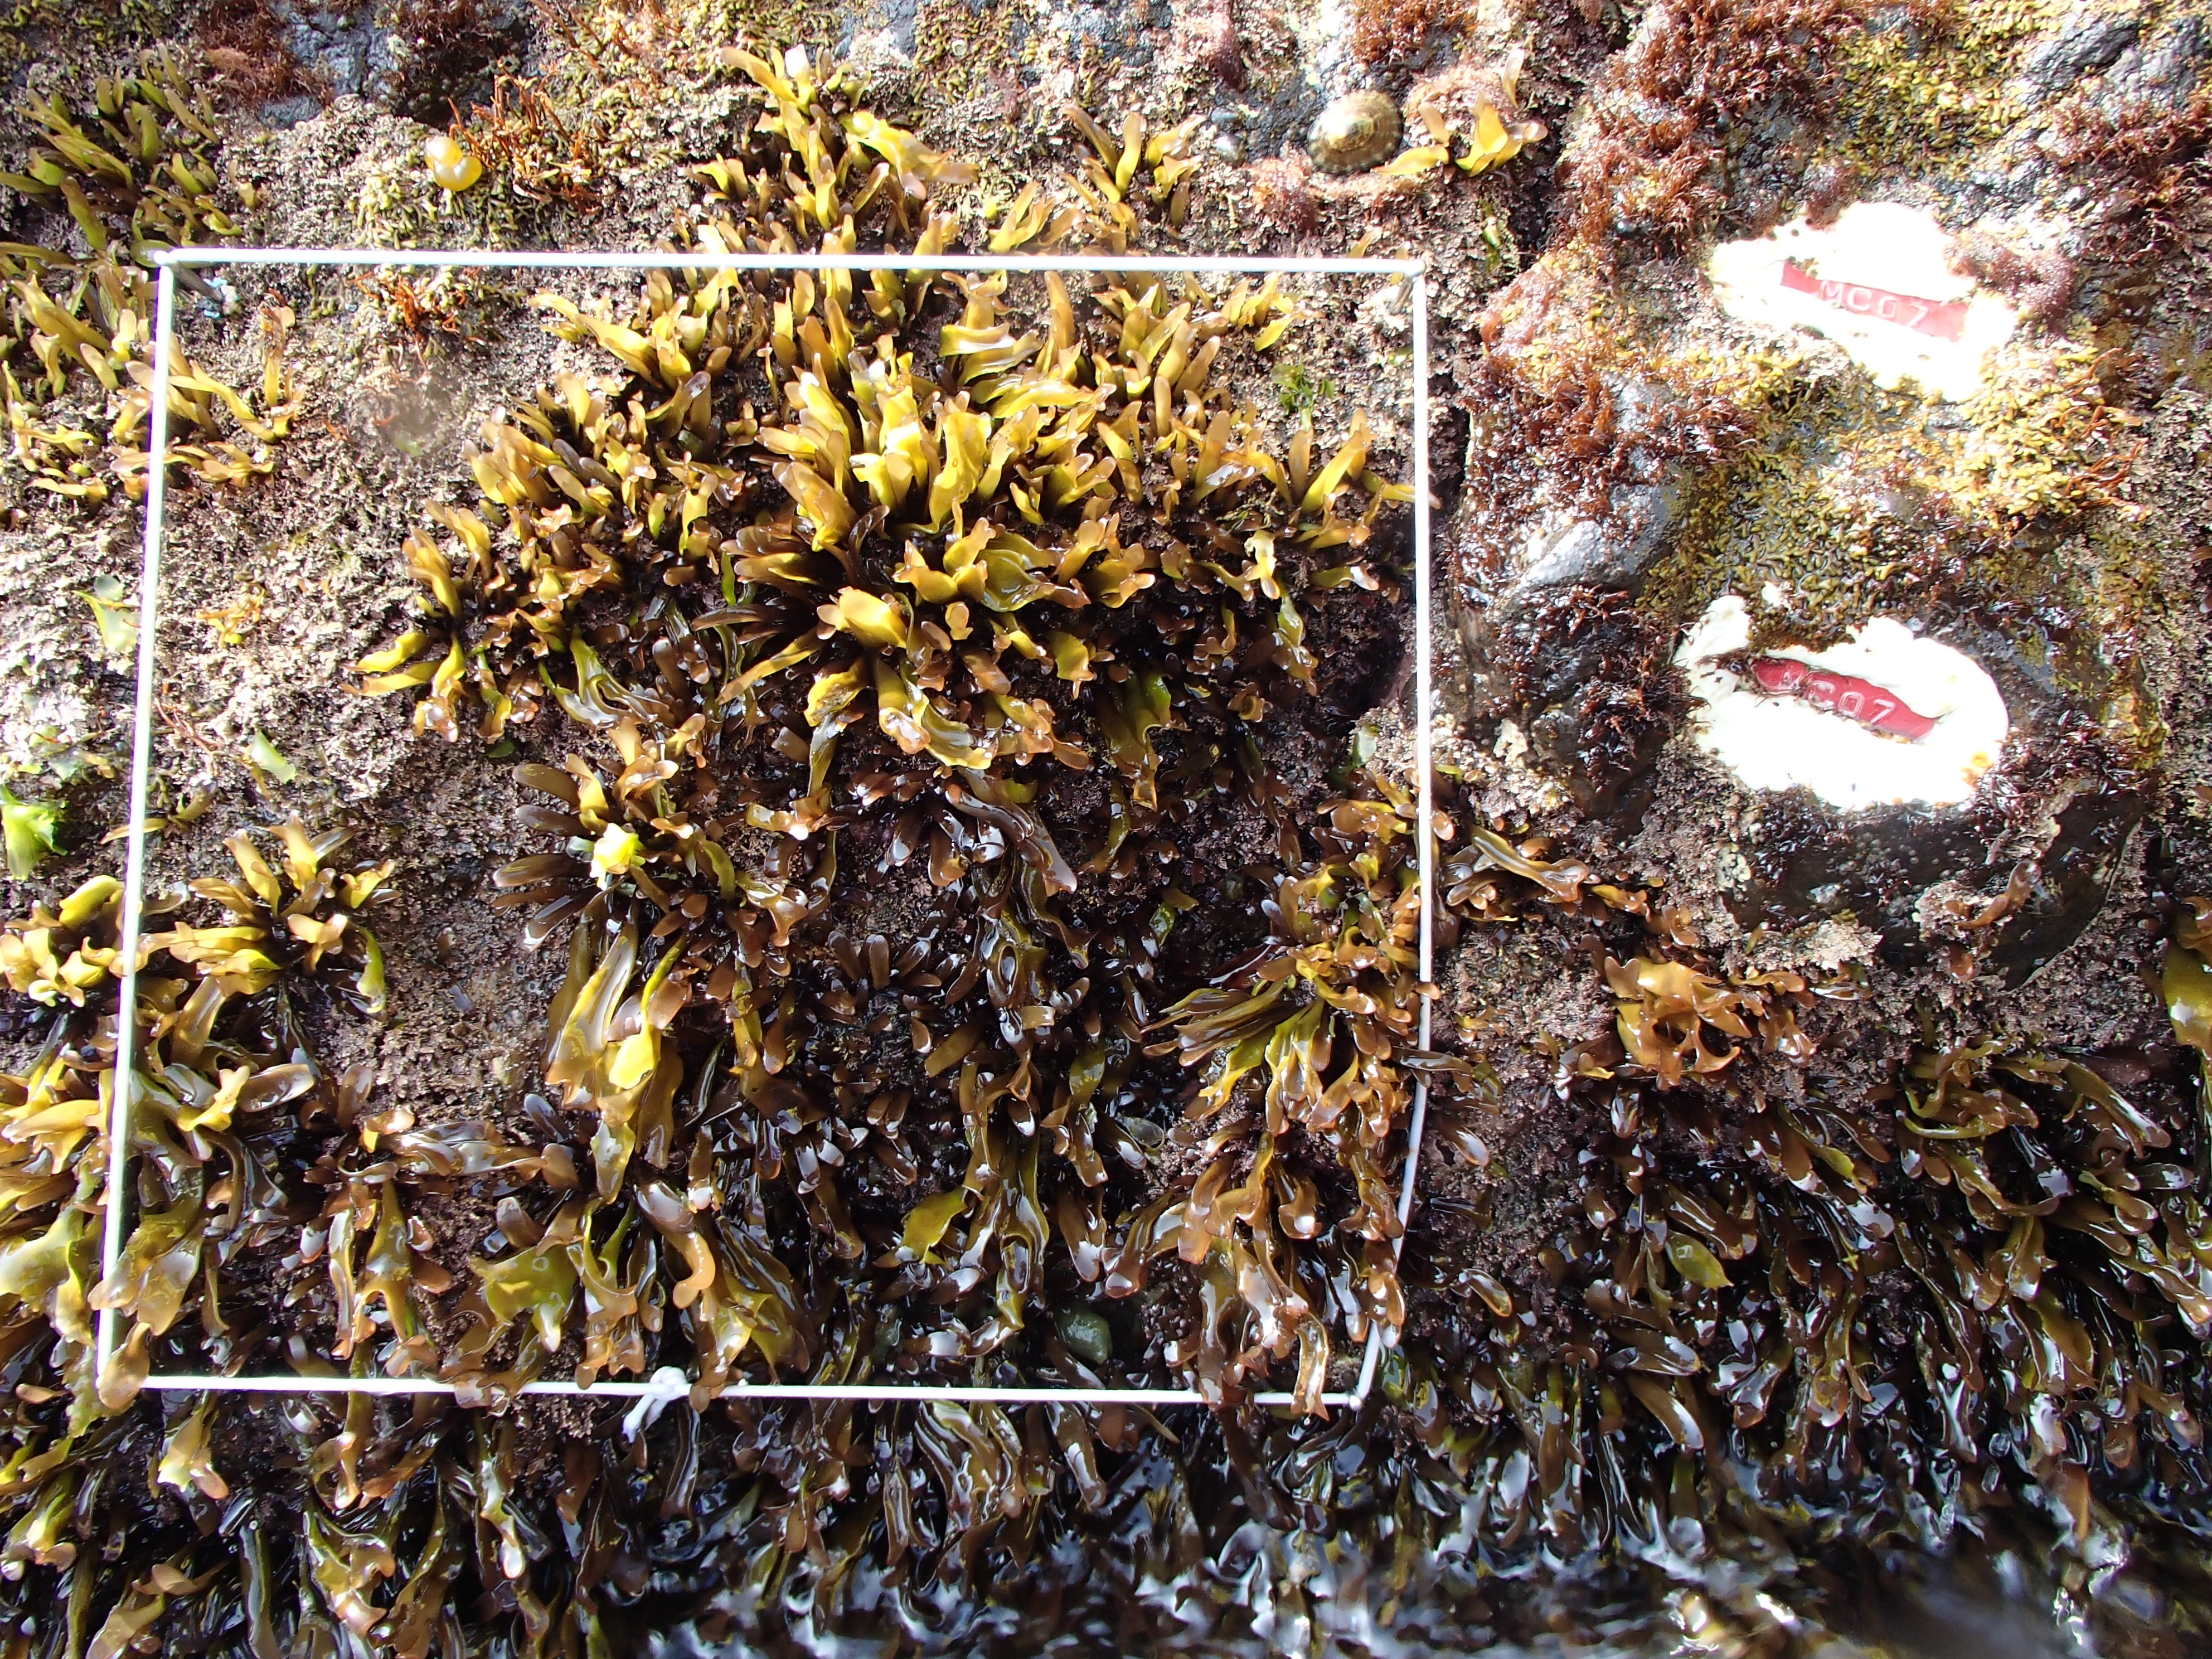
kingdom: Chromista
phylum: Ochrophyta
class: Phaeophyceae
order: Scytosiphonales
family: Scytosiphonaceae
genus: Analipus
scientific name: Analipus japonicus
